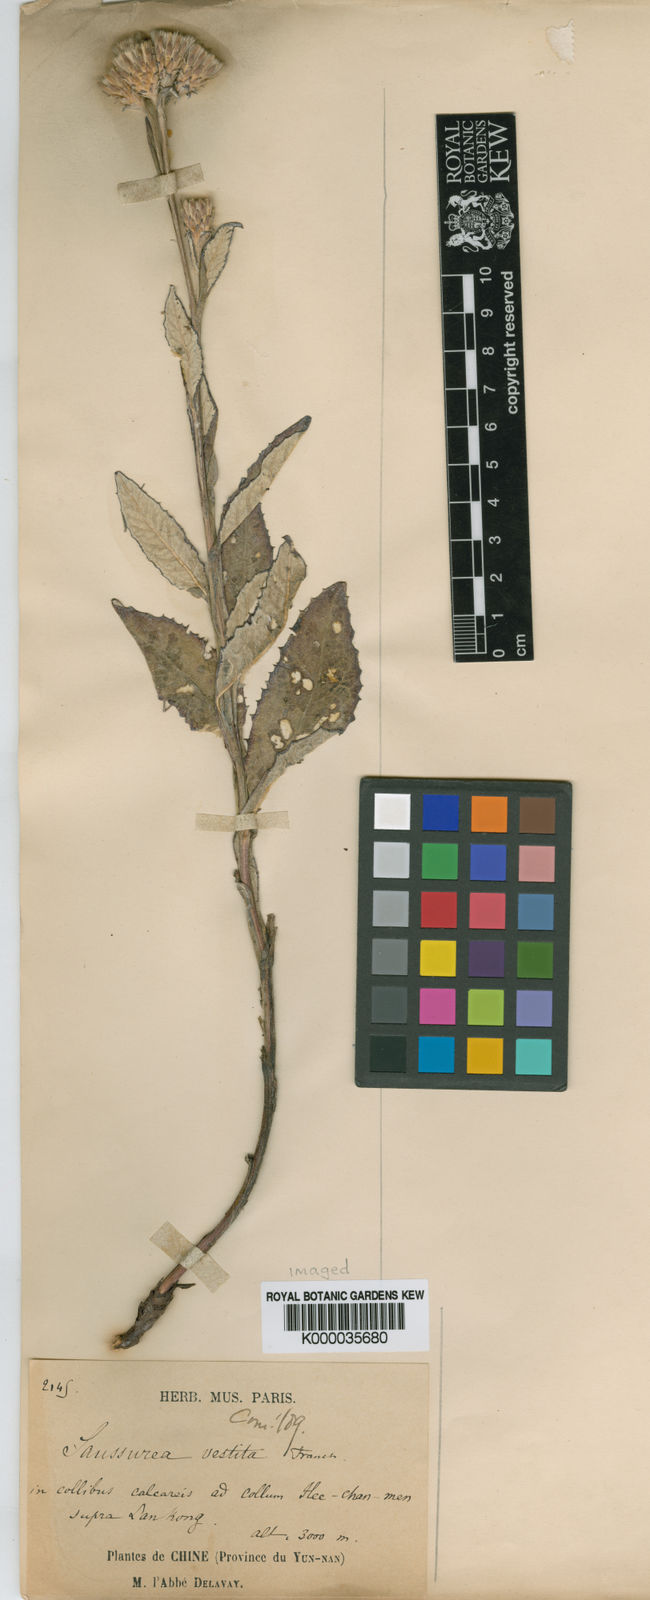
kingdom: Plantae
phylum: Tracheophyta
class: Magnoliopsida
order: Asterales
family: Asteraceae
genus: Saussurea
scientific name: Saussurea vestita
